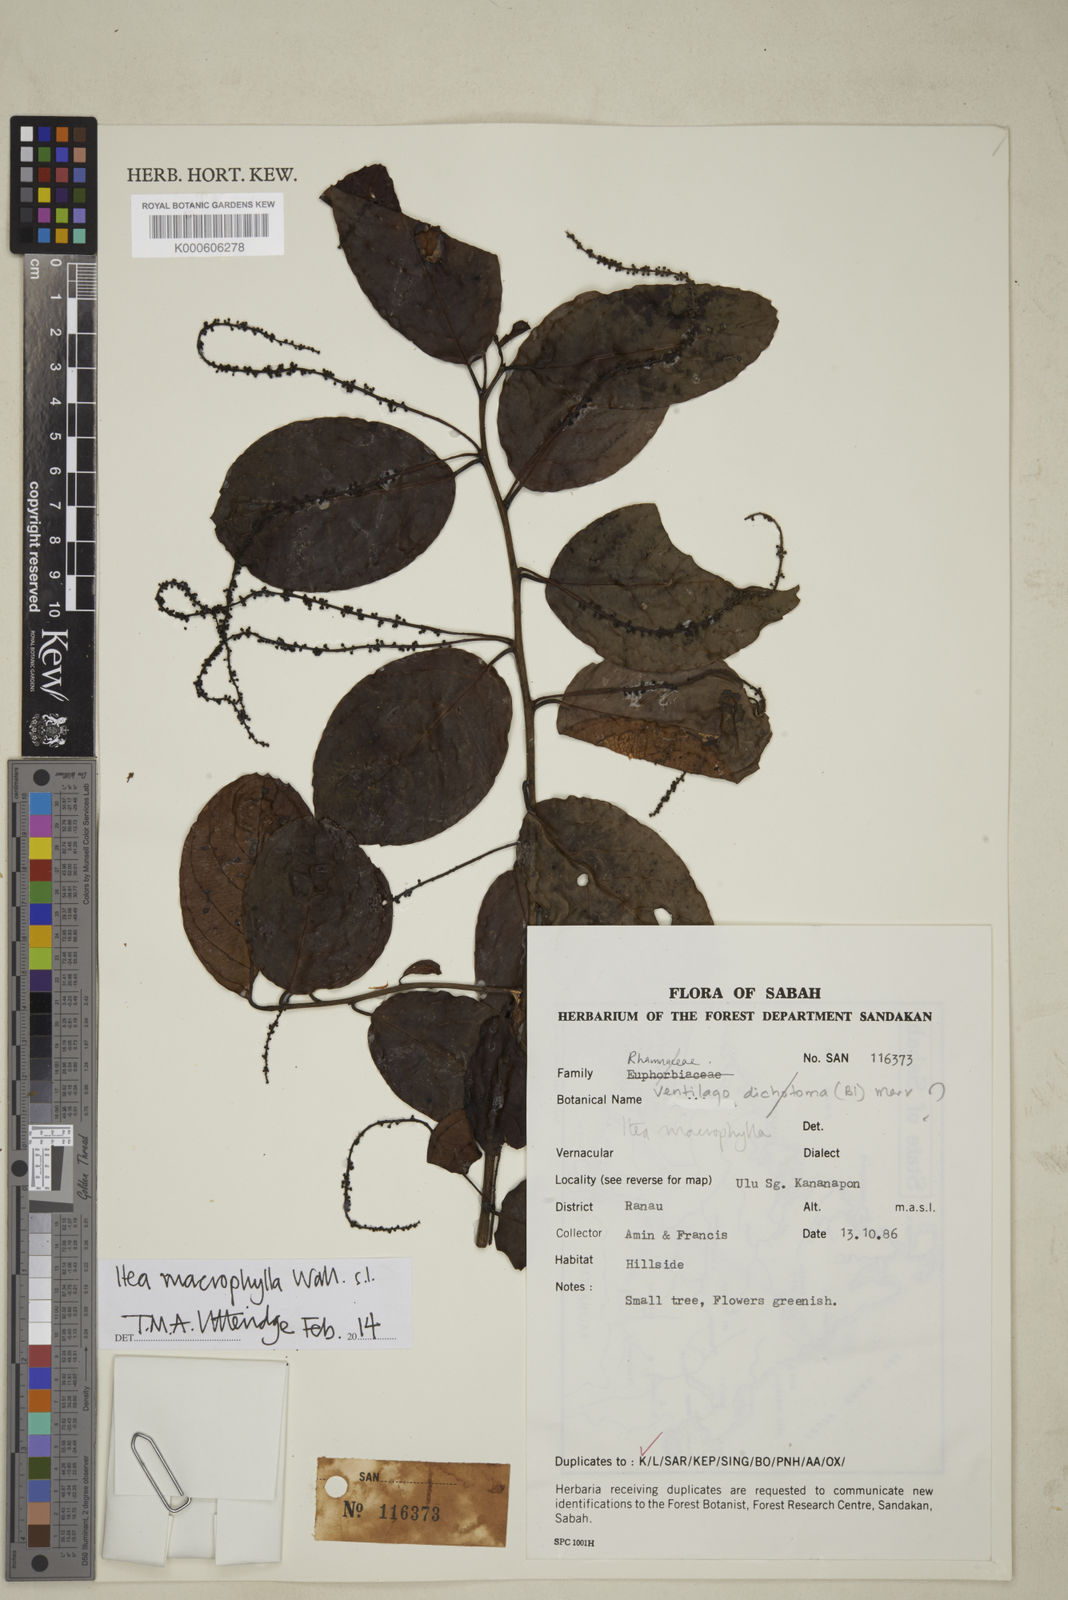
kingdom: Plantae
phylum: Tracheophyta
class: Magnoliopsida
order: Saxifragales
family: Iteaceae
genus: Itea
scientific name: Itea macrophylla
